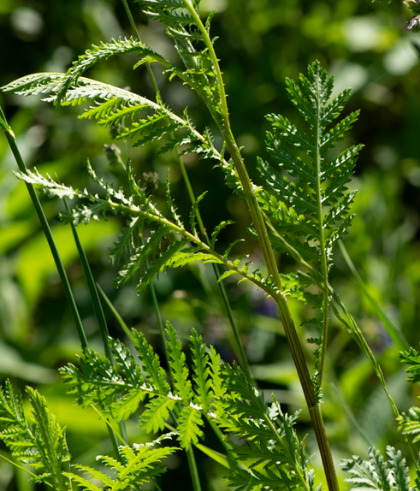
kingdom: Plantae
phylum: Tracheophyta
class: Magnoliopsida
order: Asterales
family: Asteraceae
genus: Tanacetum
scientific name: Tanacetum vulgare
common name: Rejnfan
